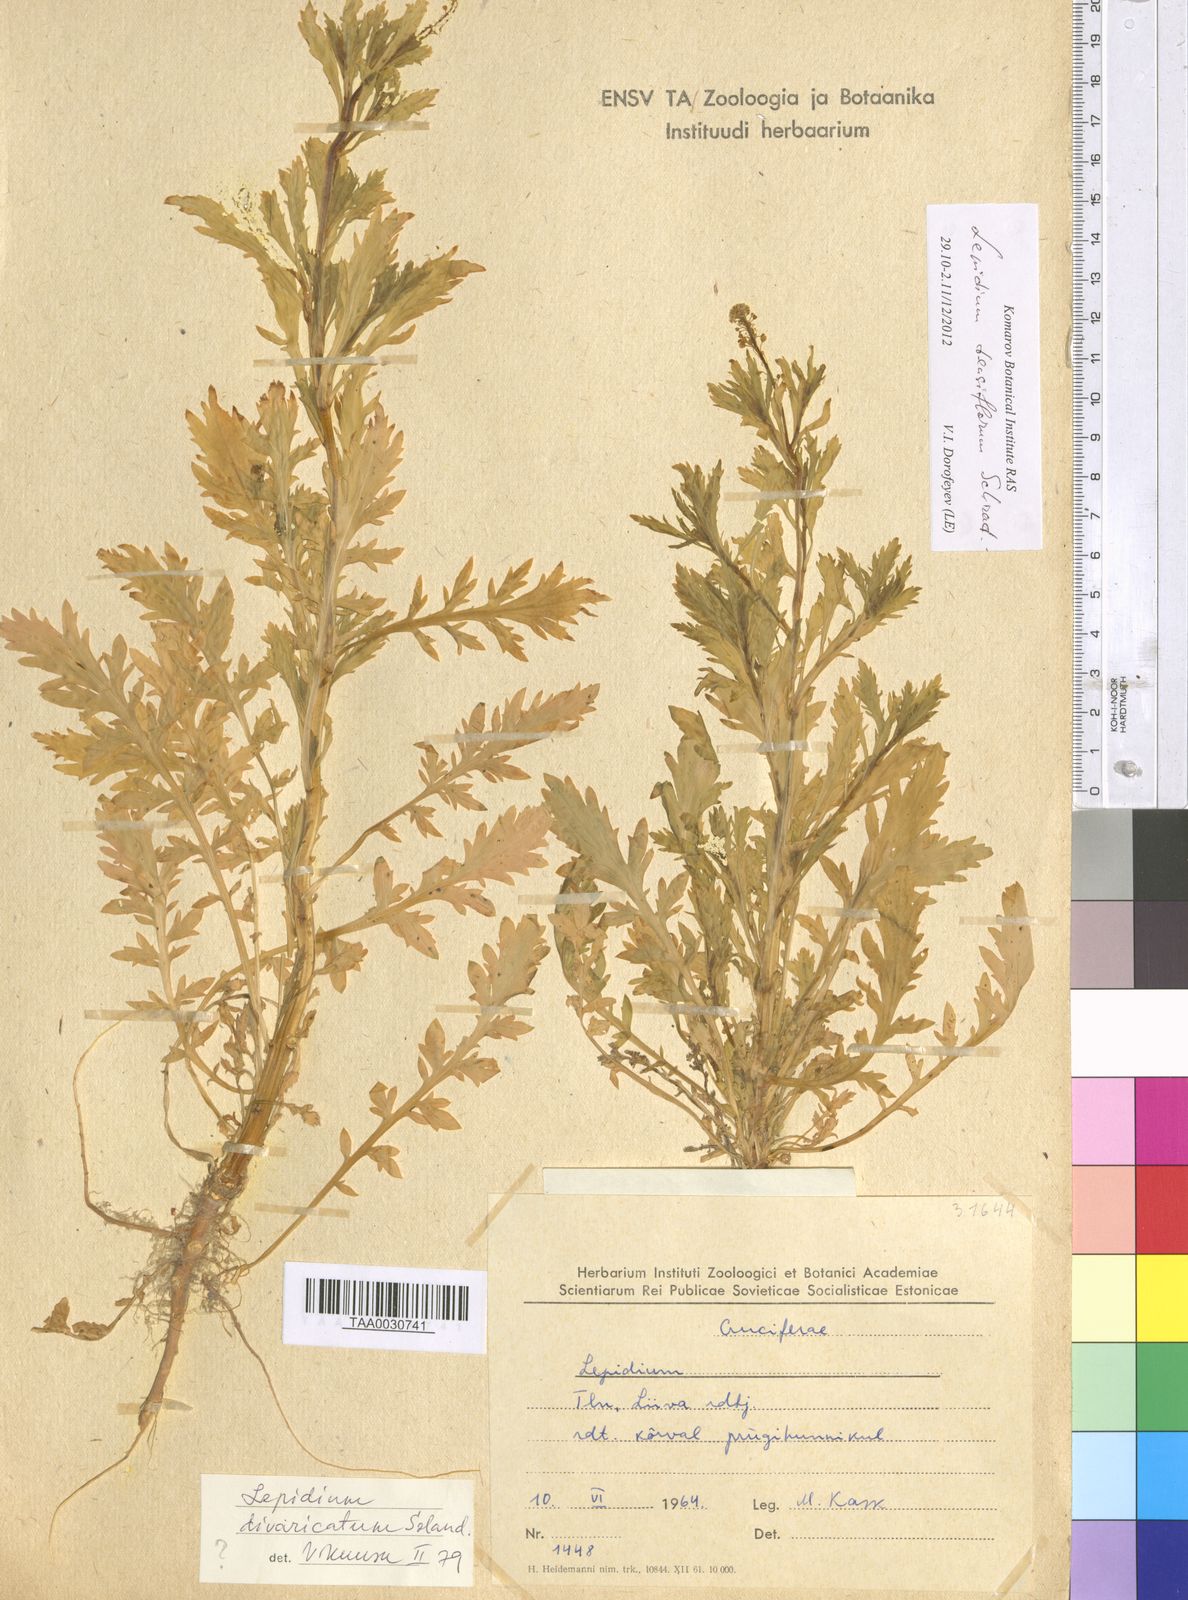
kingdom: Plantae
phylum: Tracheophyta
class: Magnoliopsida
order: Brassicales
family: Brassicaceae
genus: Lepidium
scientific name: Lepidium densiflorum
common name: Miner's pepperwort
